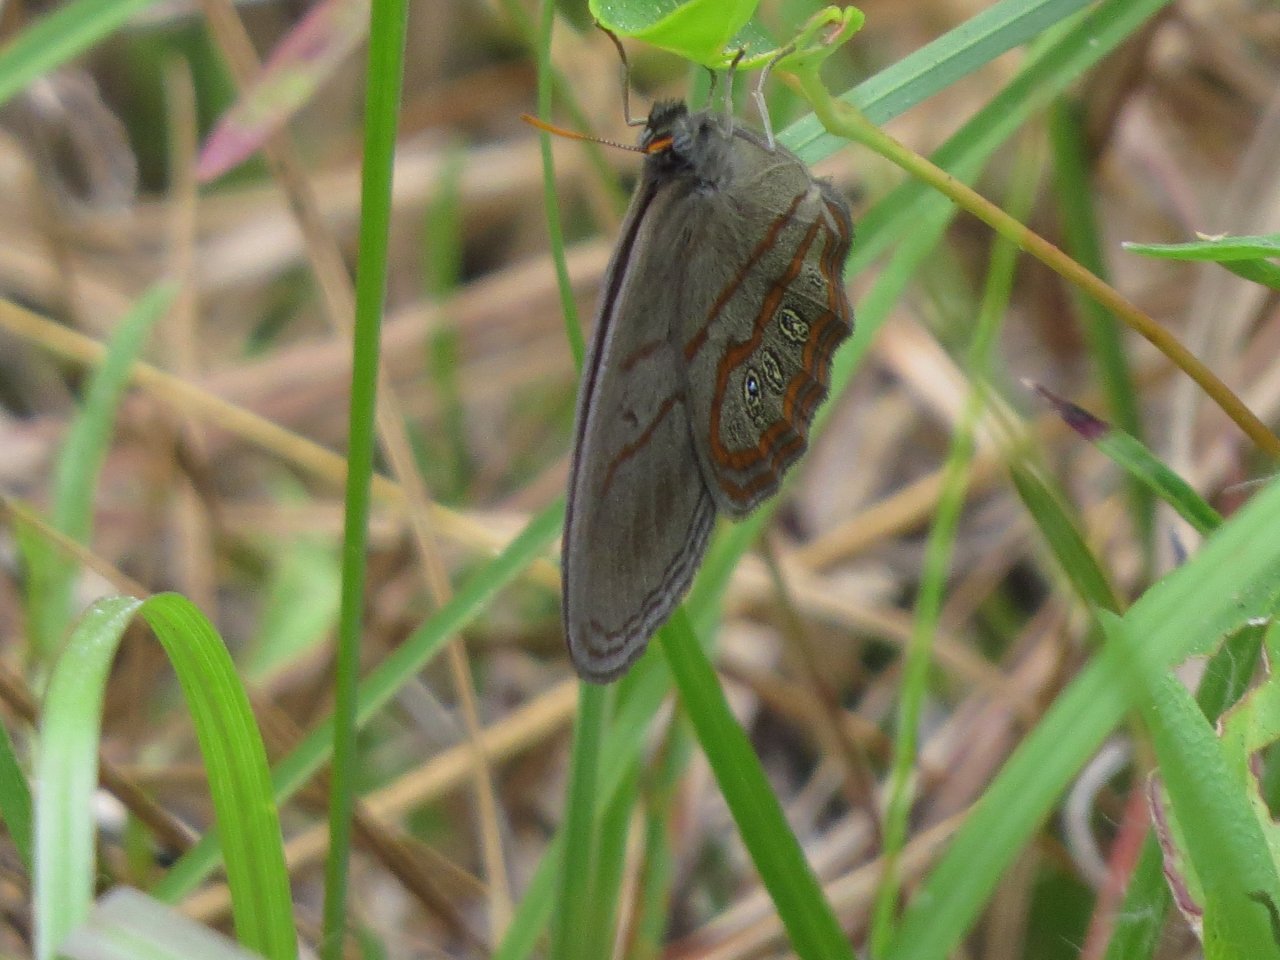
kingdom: Animalia
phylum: Arthropoda
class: Insecta
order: Lepidoptera
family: Nymphalidae
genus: Euptychia
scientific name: Euptychia phocion
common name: Georgia Satyr
